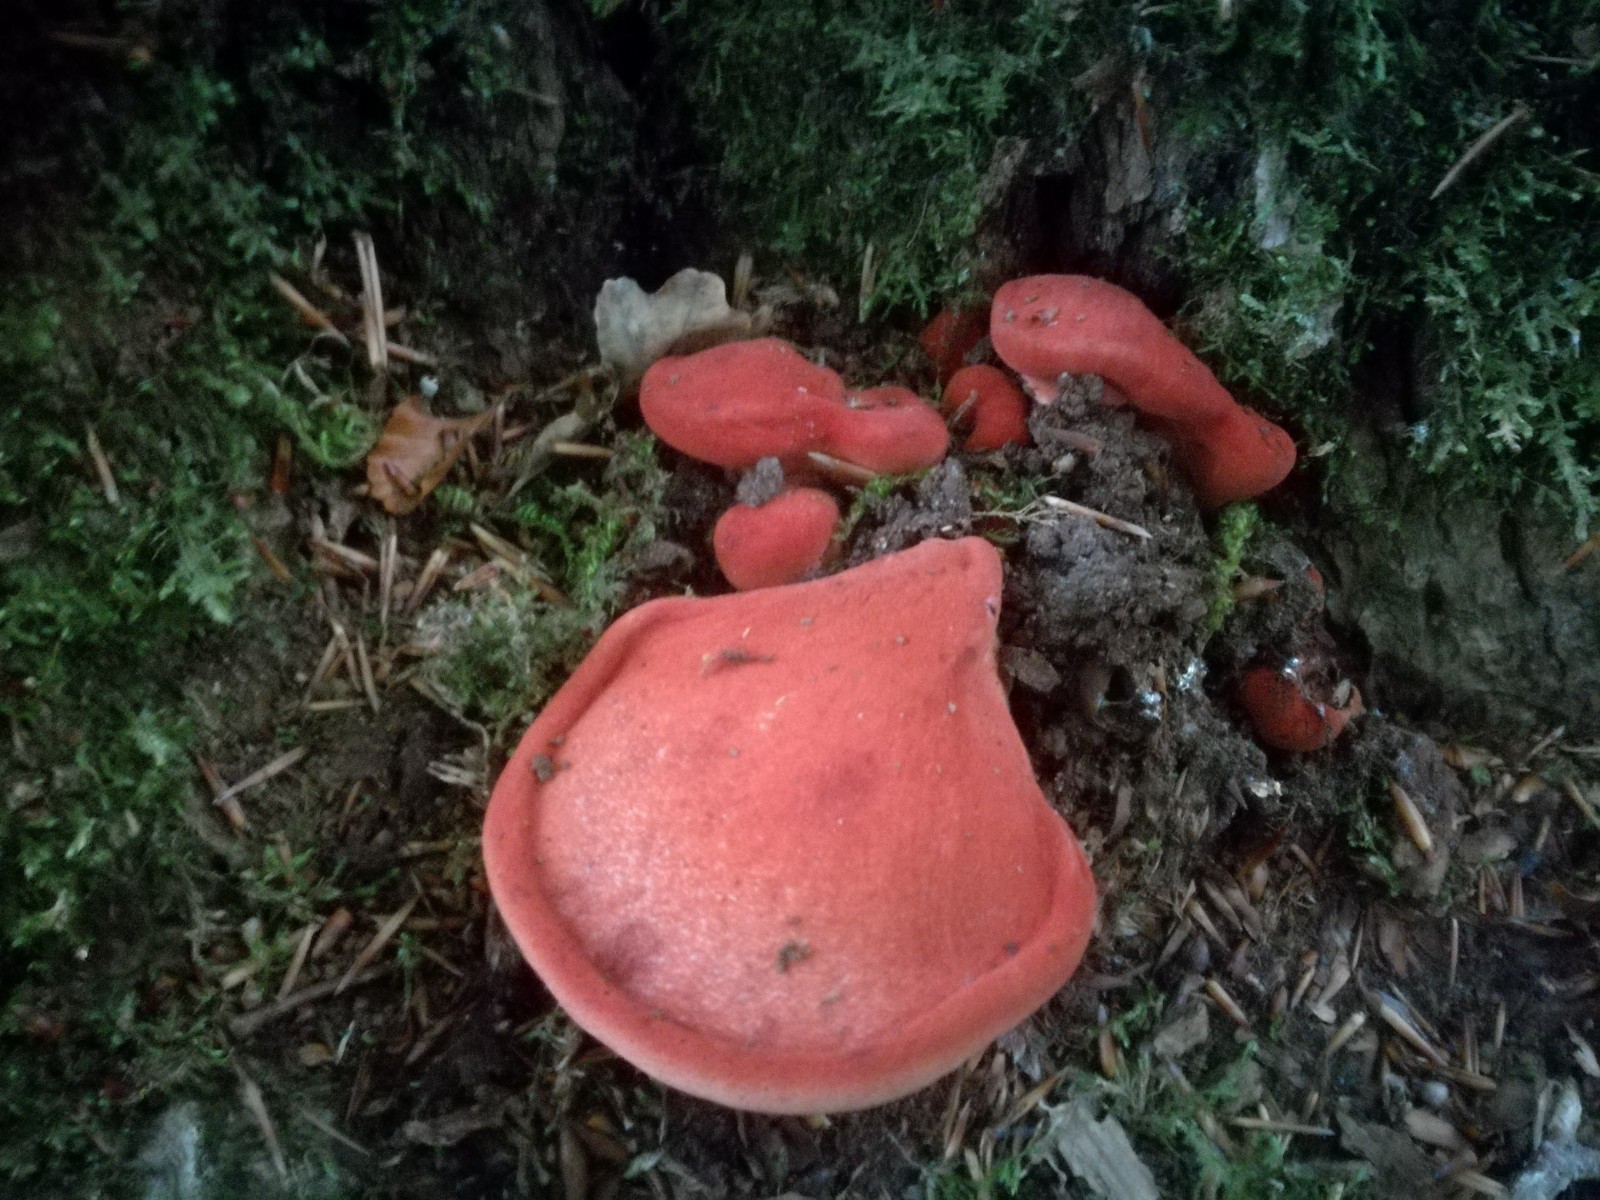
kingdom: Fungi
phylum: Basidiomycota
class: Agaricomycetes
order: Agaricales
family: Fistulinaceae
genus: Fistulina
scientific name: Fistulina hepatica
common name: oksetunge
